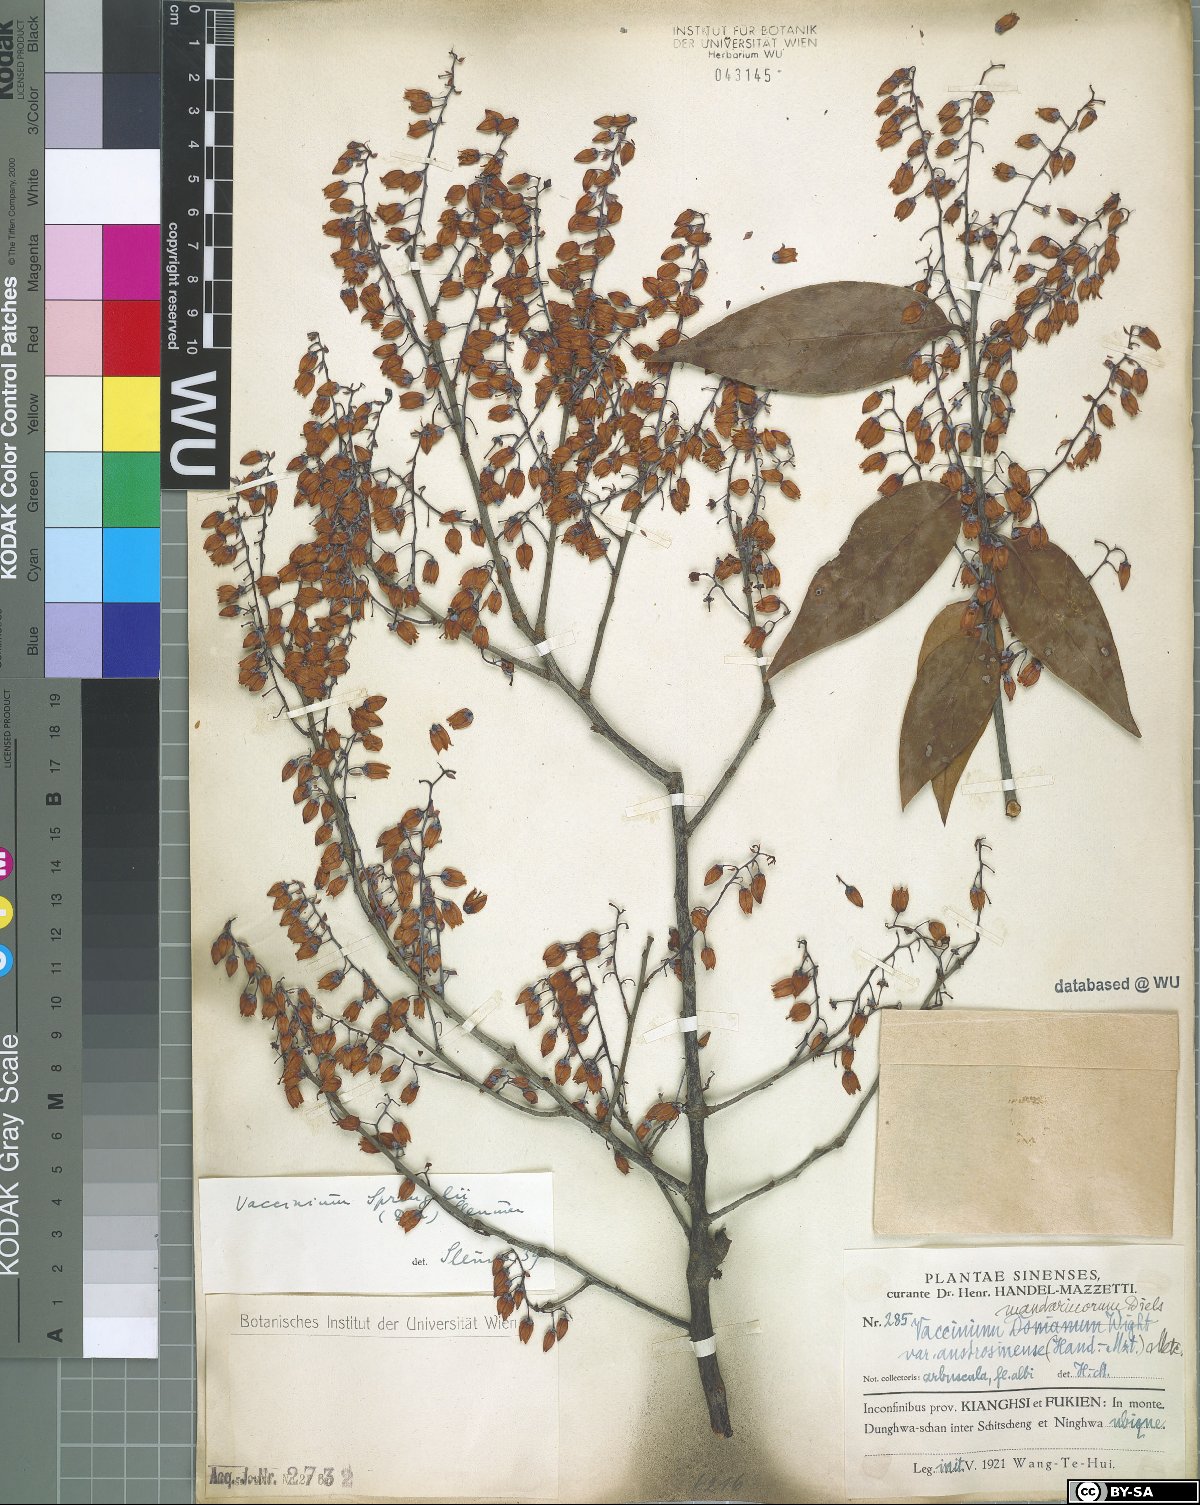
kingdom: Plantae
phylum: Tracheophyta
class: Magnoliopsida
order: Ericales
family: Ericaceae
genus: Vaccinium
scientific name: Vaccinium sprengelii
